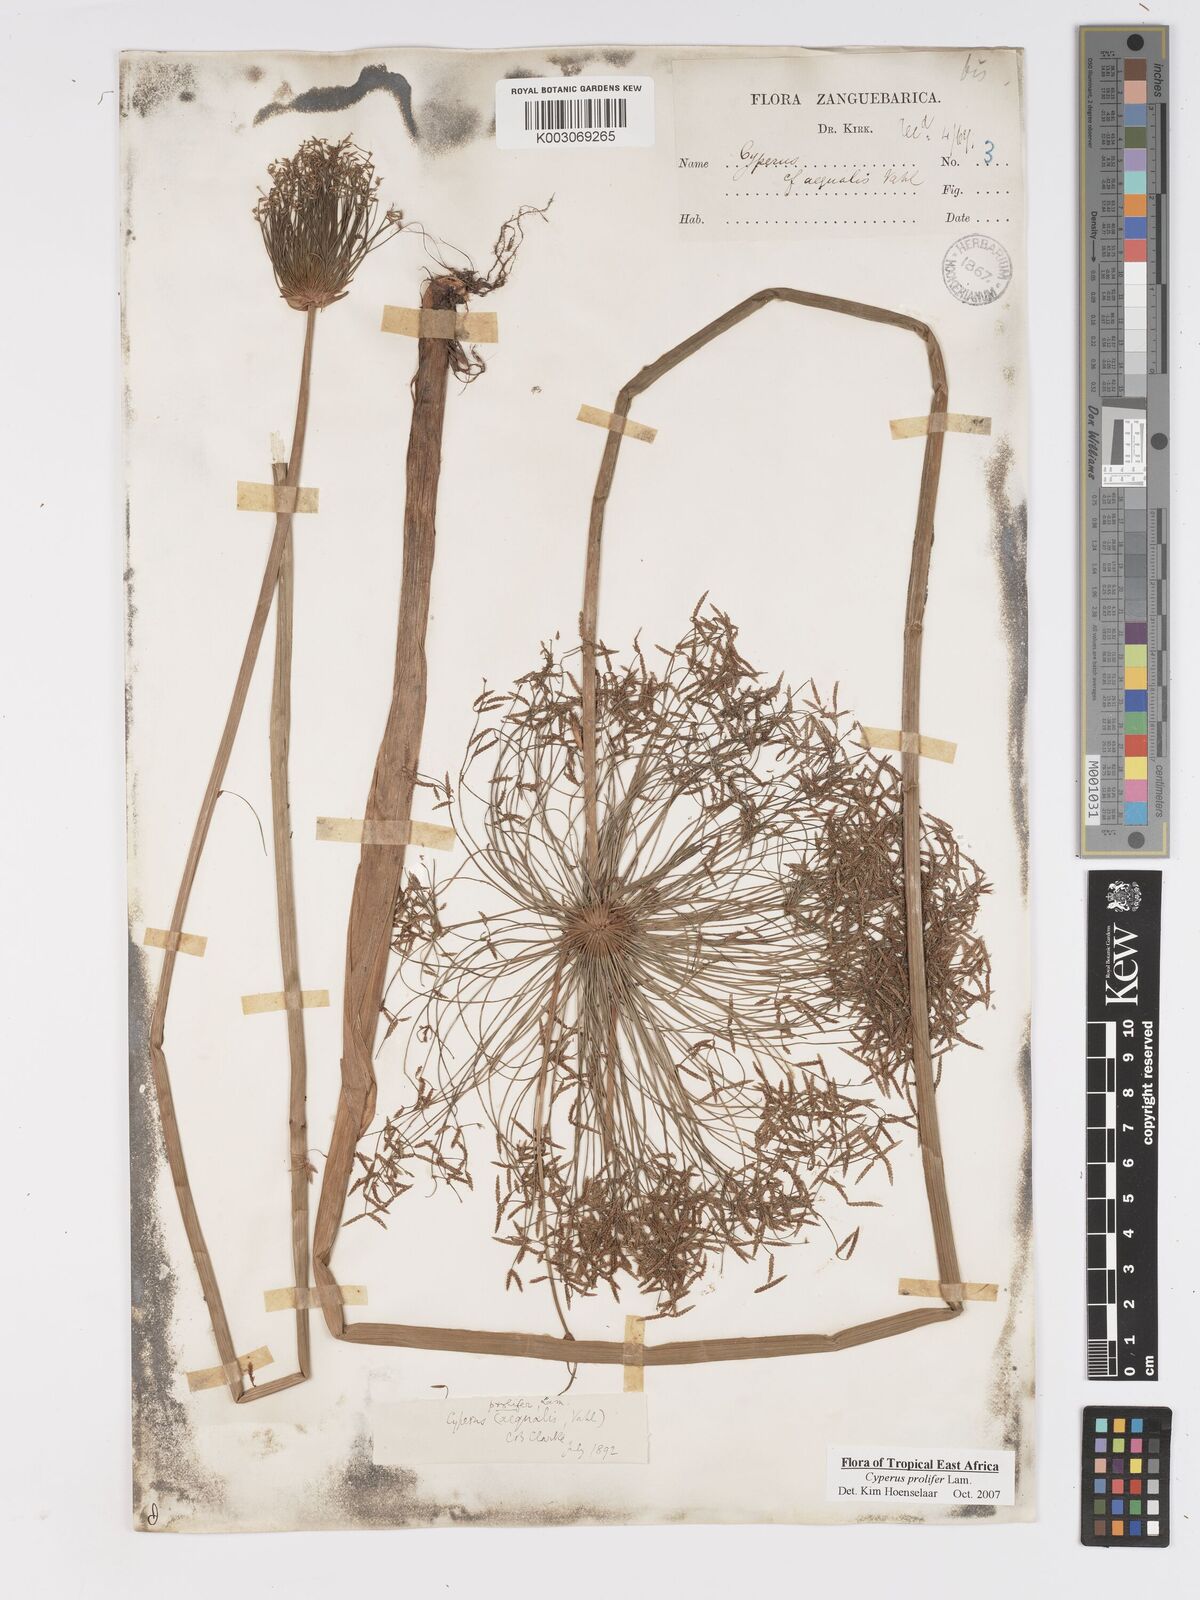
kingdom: Plantae
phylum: Tracheophyta
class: Liliopsida
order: Poales
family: Cyperaceae
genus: Cyperus
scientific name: Cyperus prolifer
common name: Miniature flatsedge
